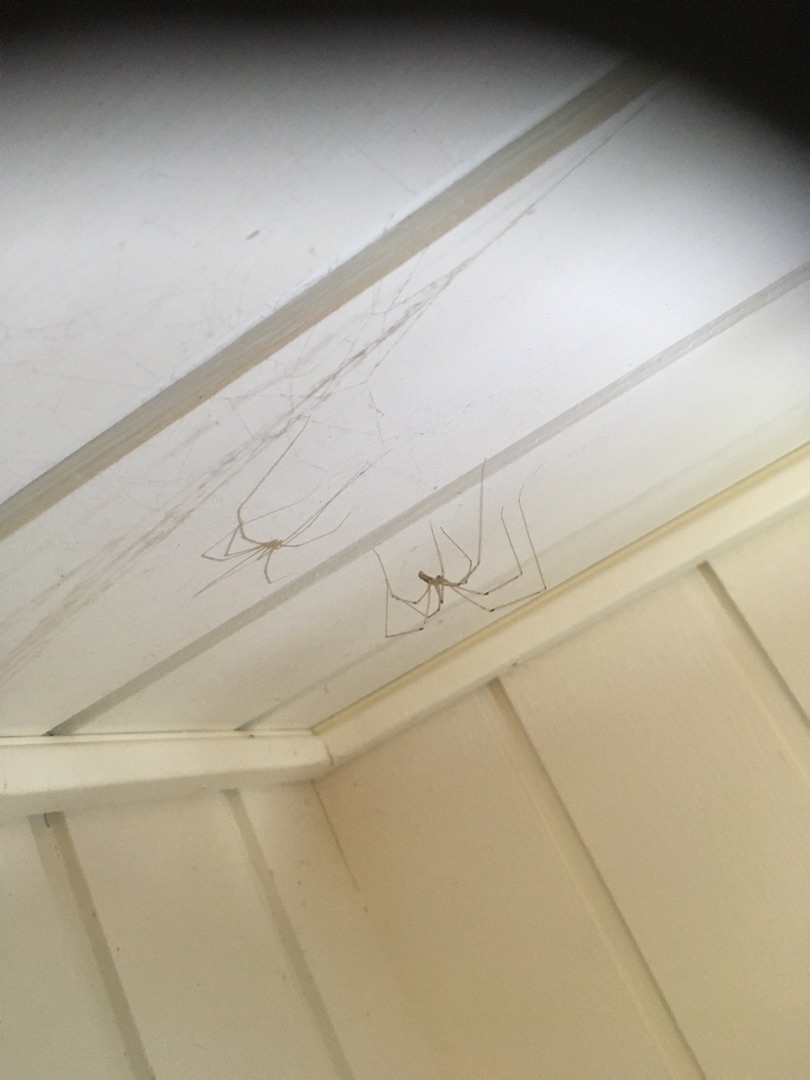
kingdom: Animalia
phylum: Arthropoda
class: Arachnida
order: Araneae
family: Pholcidae
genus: Pholcus
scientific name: Pholcus phalangioides
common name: Mejeredderkop
